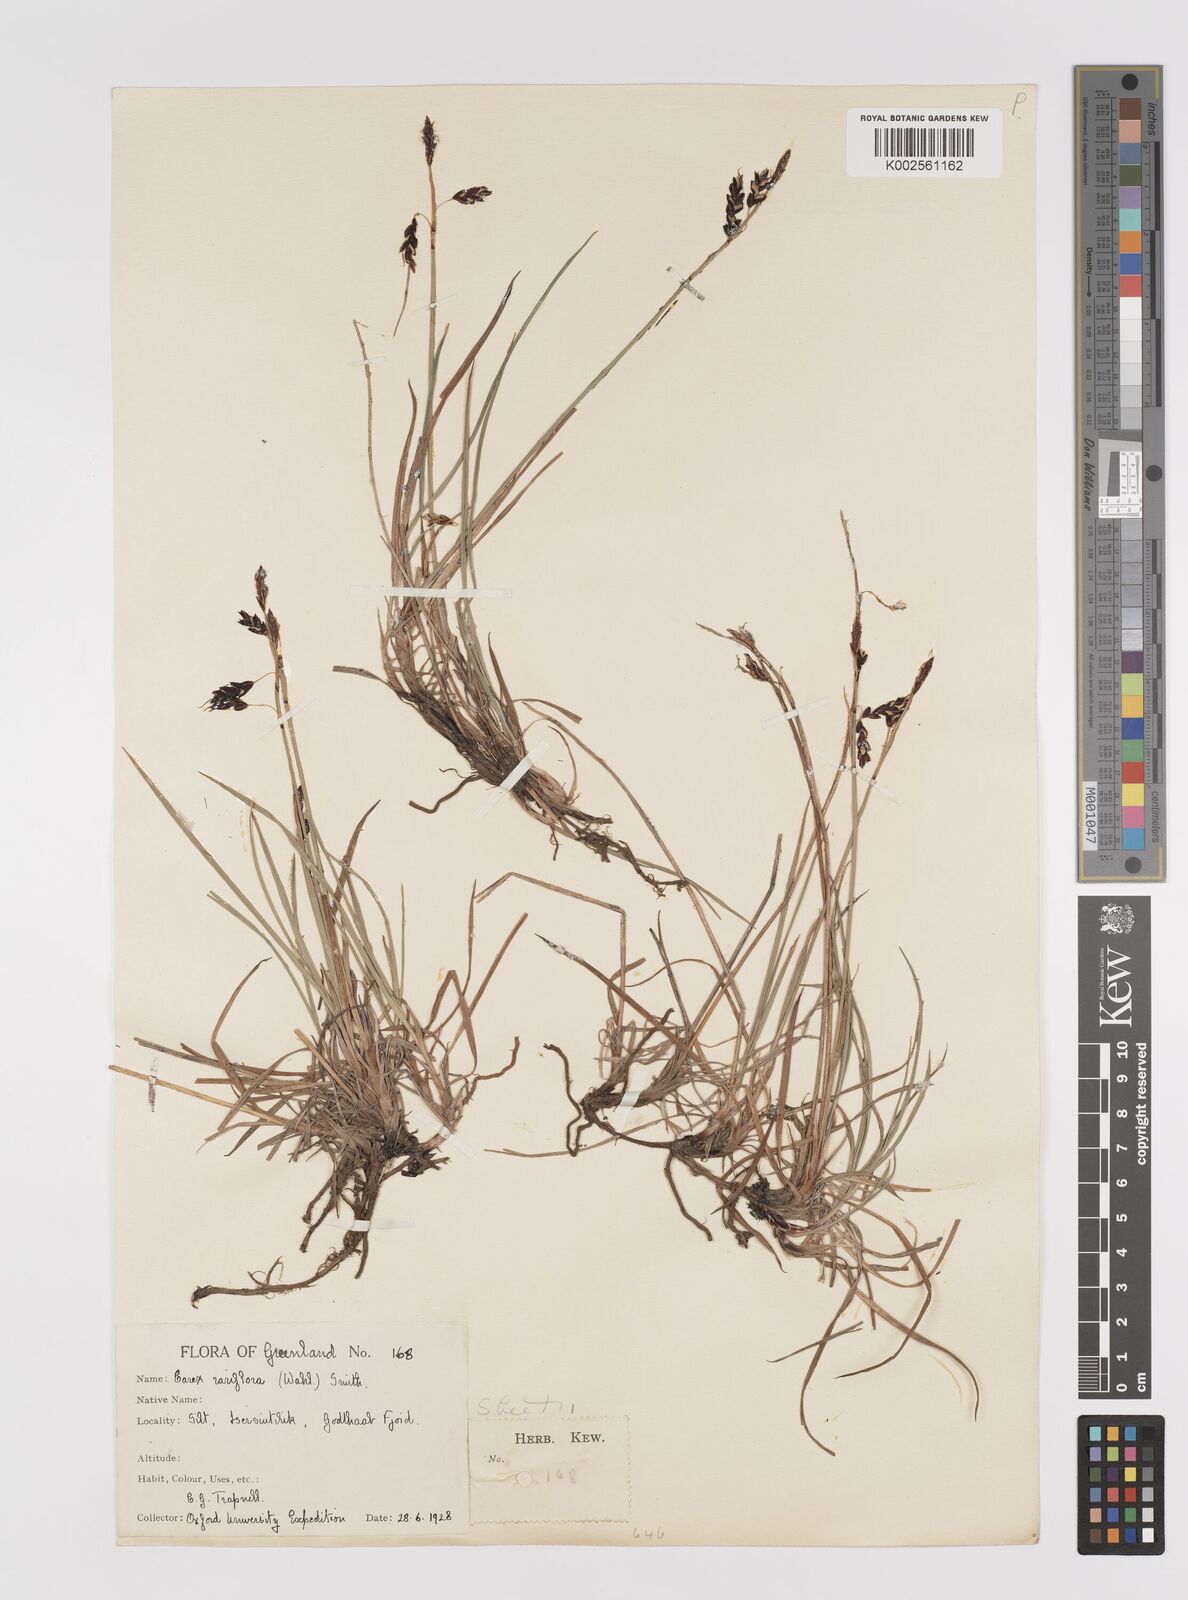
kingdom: Plantae
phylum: Tracheophyta
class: Liliopsida
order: Poales
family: Cyperaceae
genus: Carex
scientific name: Carex rariflora
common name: Loose-flowered alpine sedge
